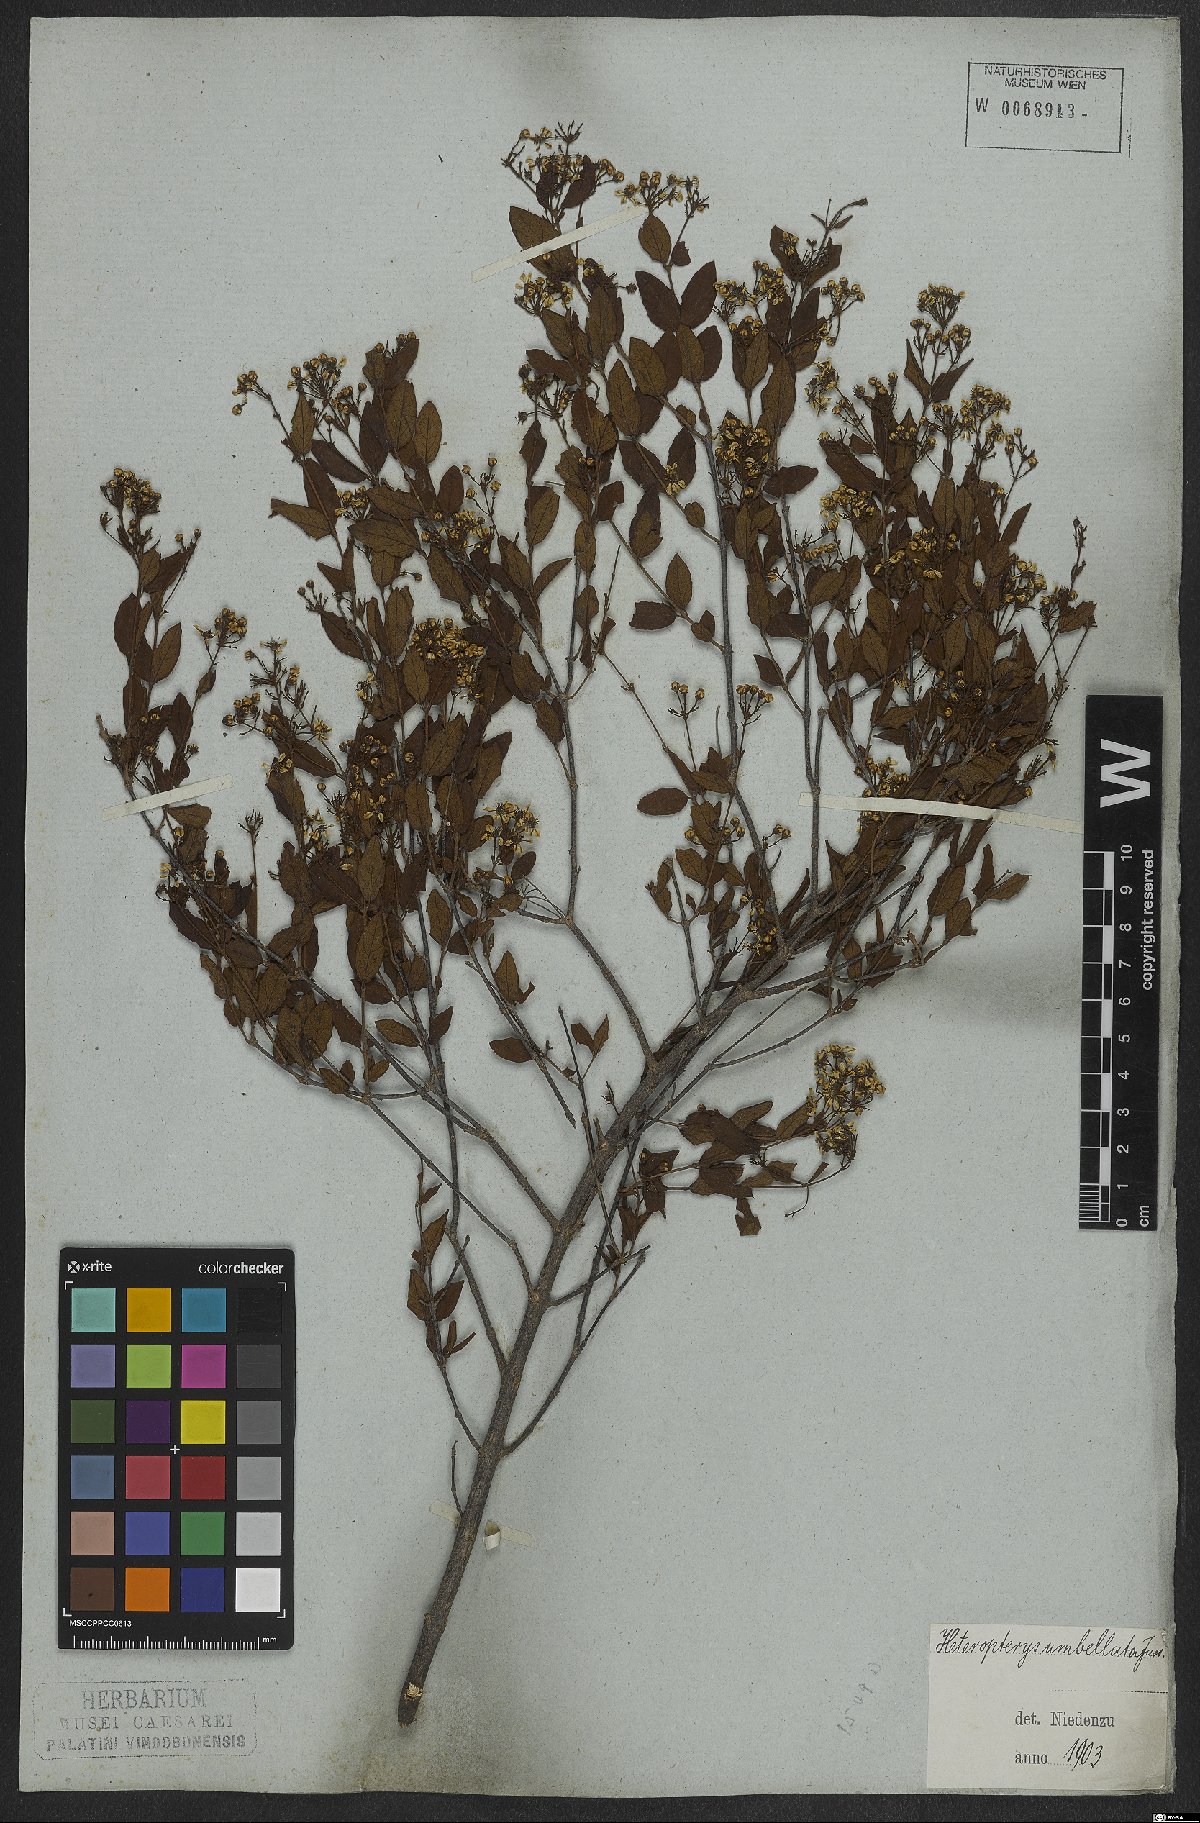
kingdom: Plantae
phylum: Tracheophyta
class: Magnoliopsida
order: Malpighiales
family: Malpighiaceae
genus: Heteropterys
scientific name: Heteropterys umbellata
